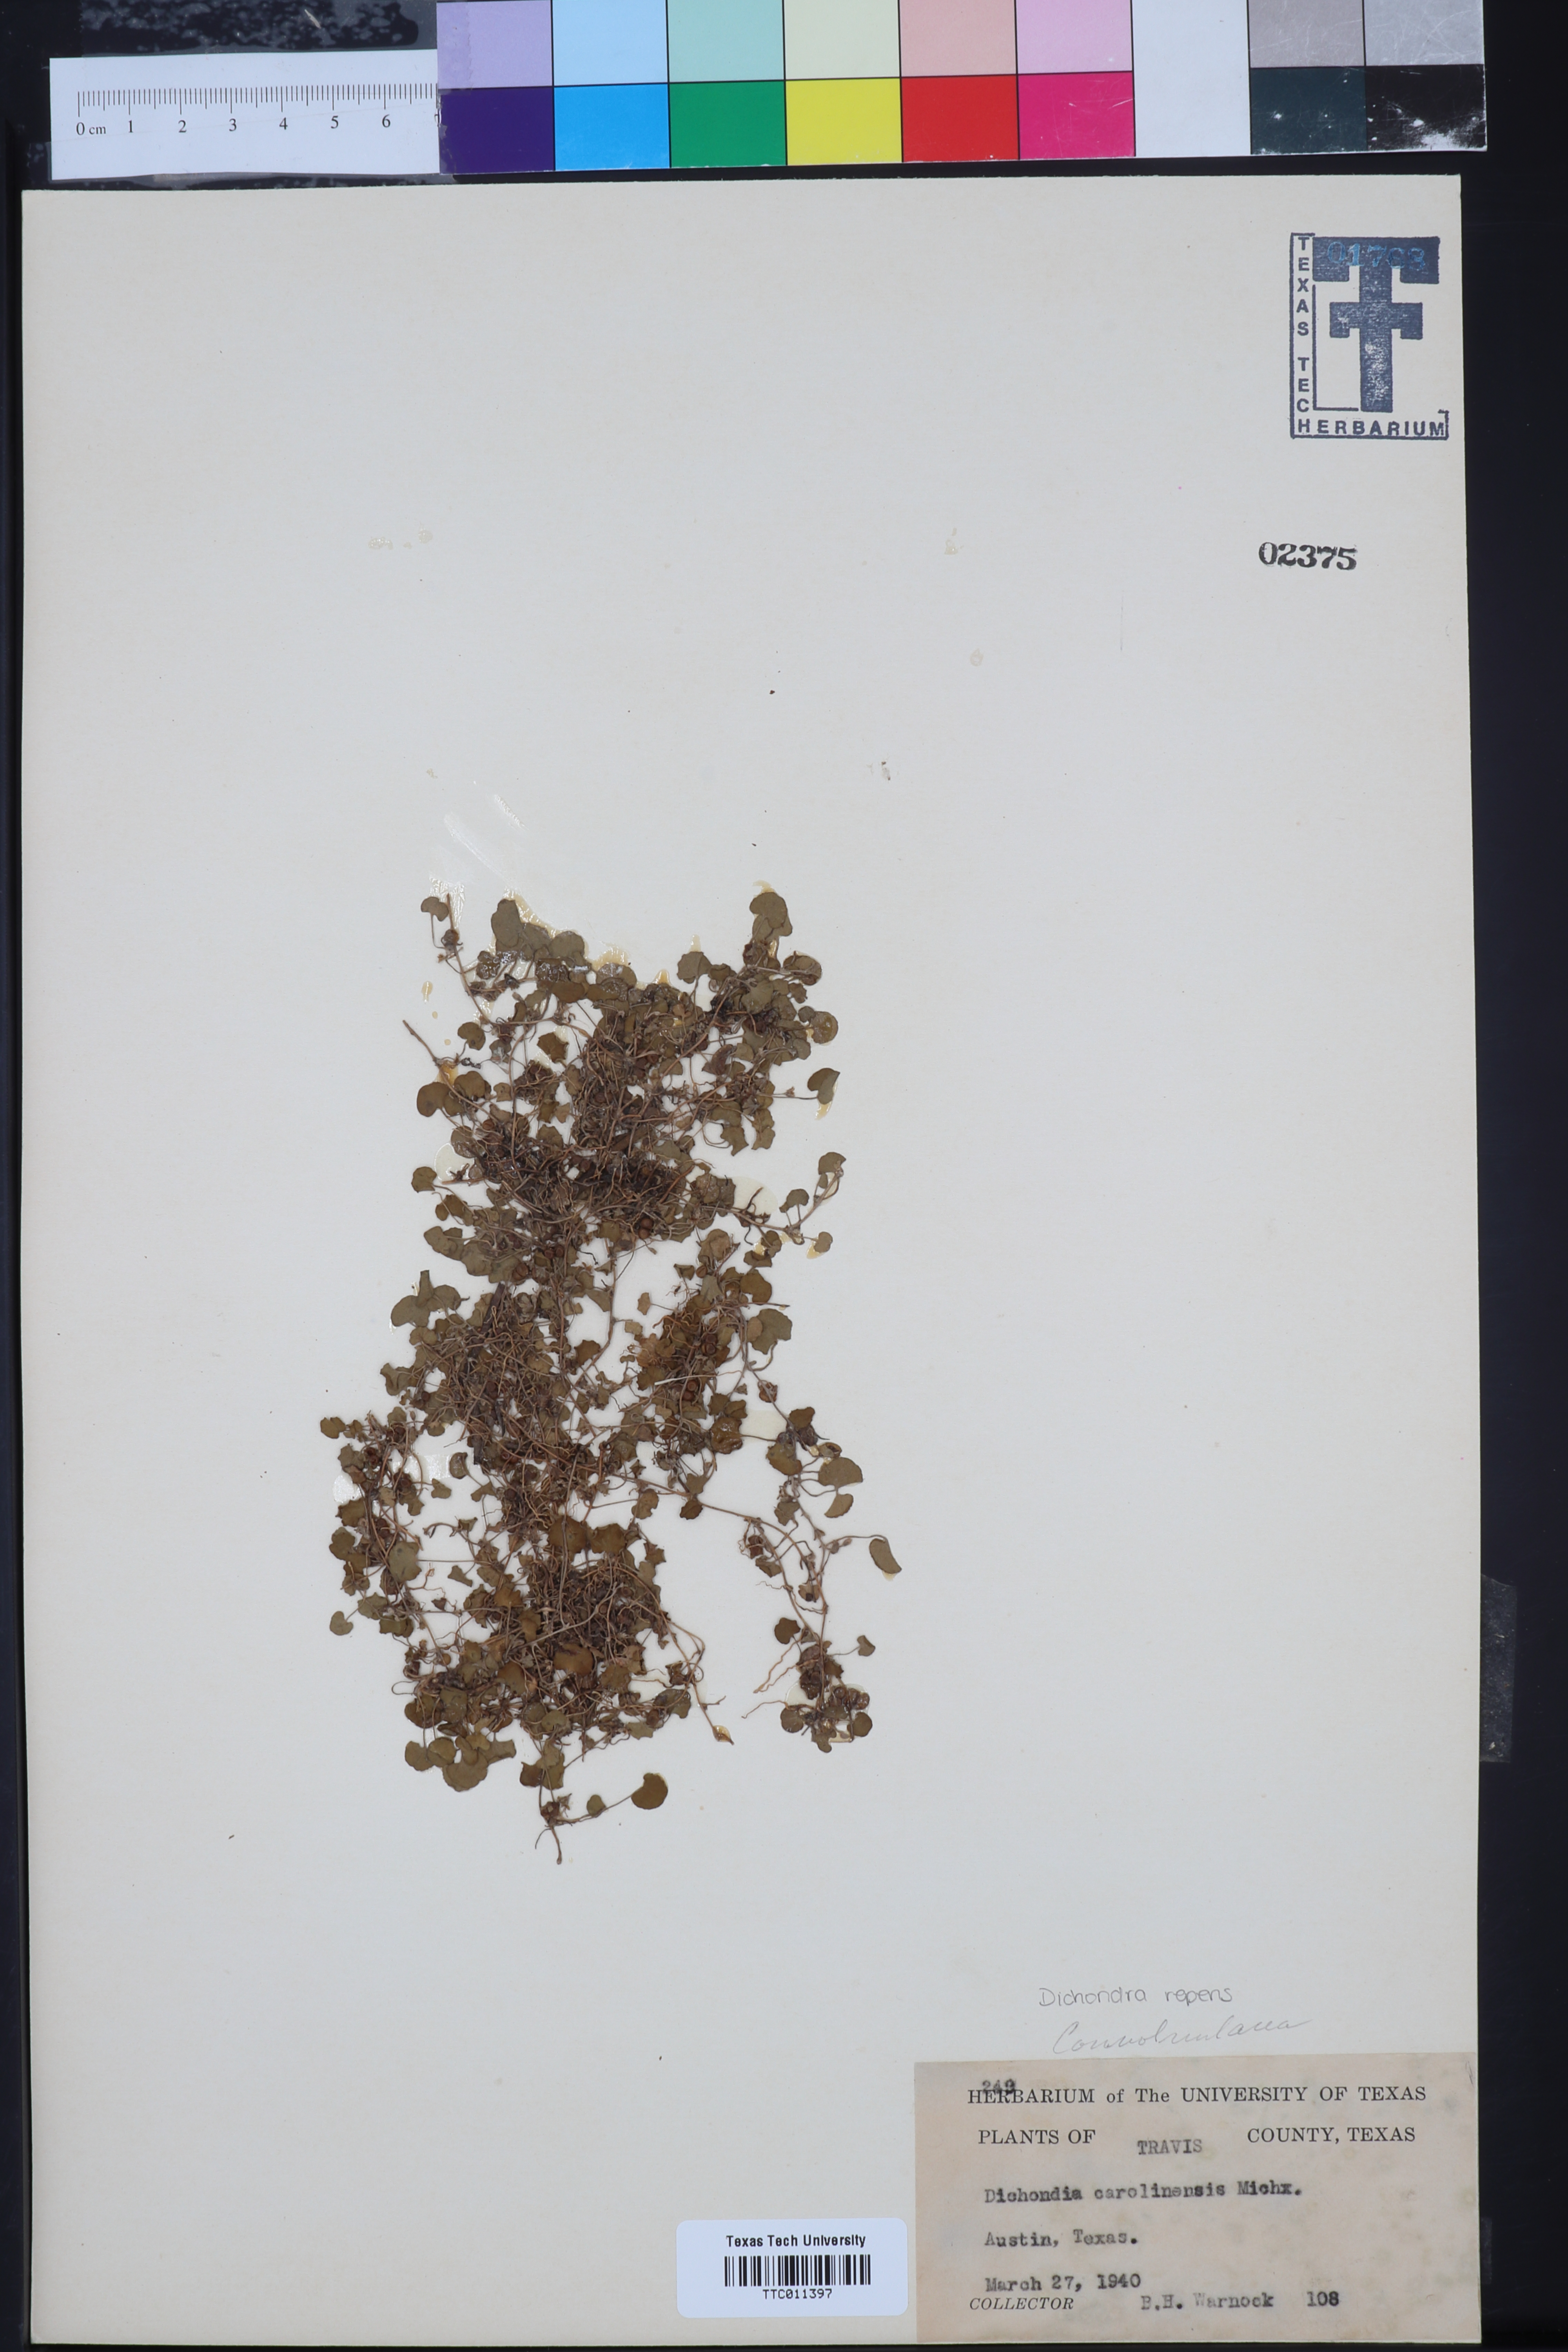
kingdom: Plantae
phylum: Tracheophyta
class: Magnoliopsida
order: Solanales
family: Convolvulaceae
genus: Dichondra
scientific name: Dichondra carolinensis
